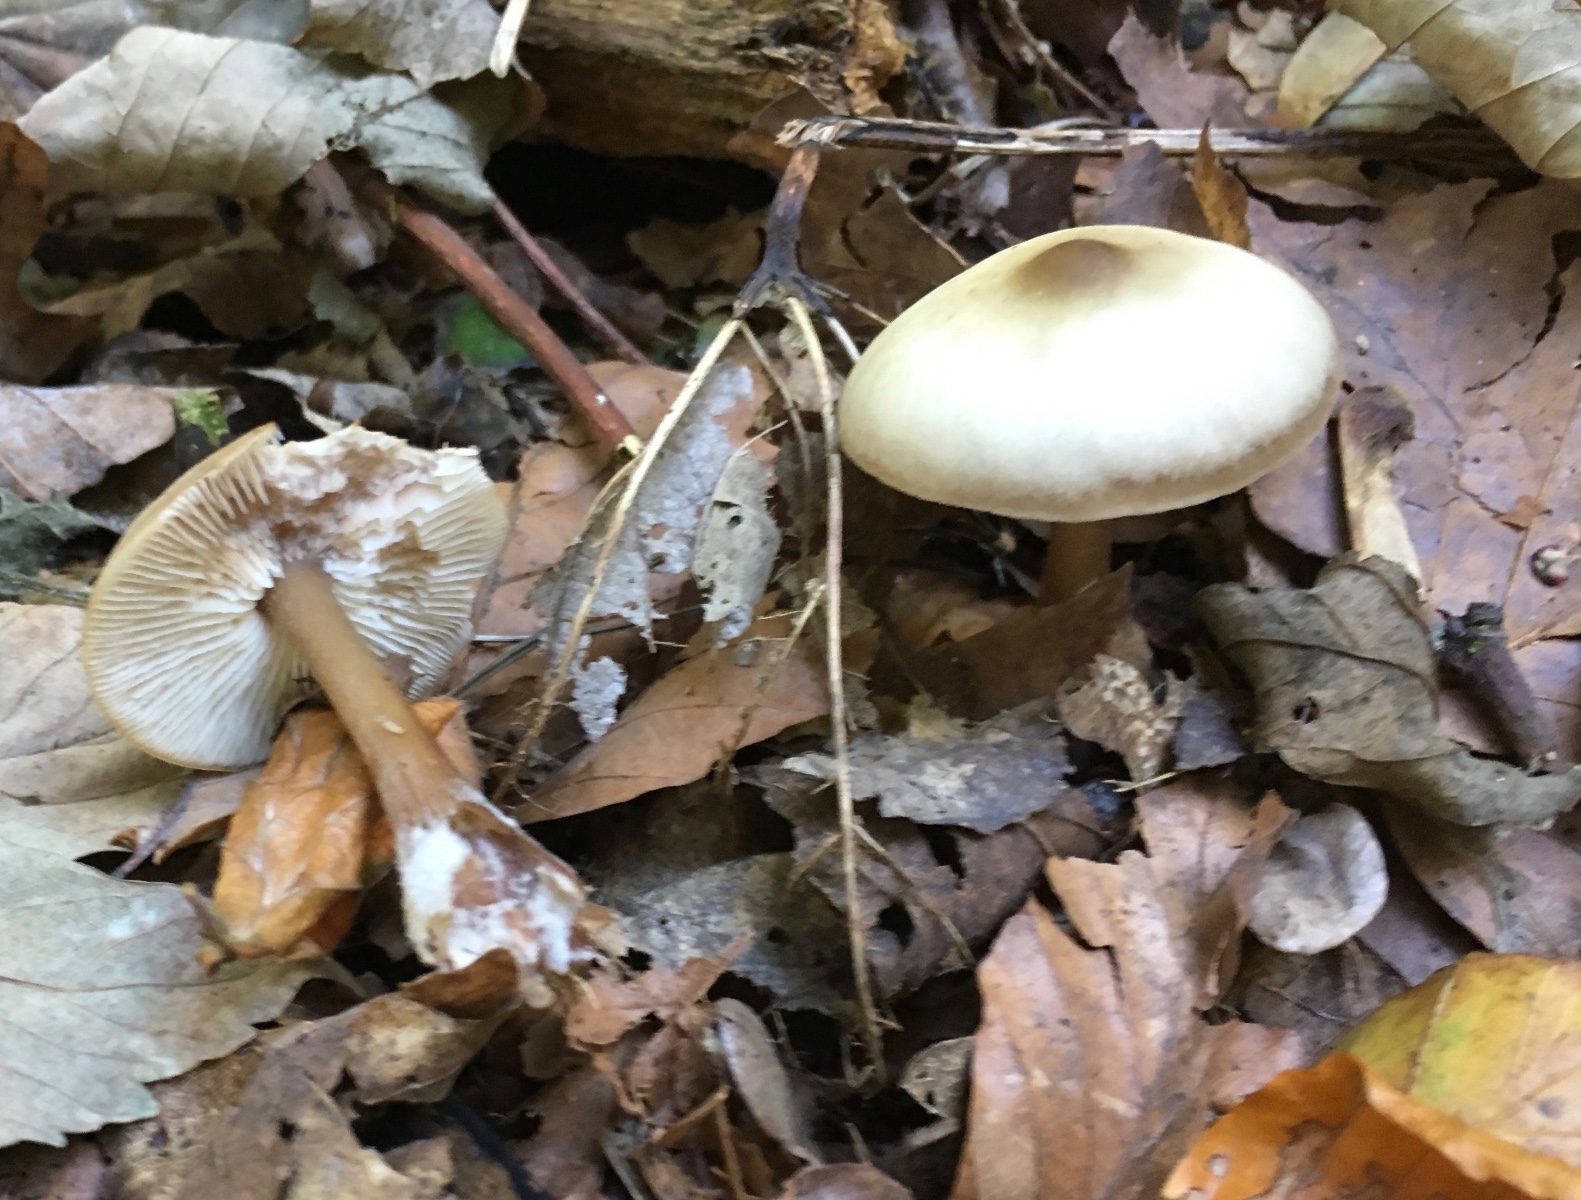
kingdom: Fungi
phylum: Basidiomycota
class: Agaricomycetes
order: Agaricales
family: Omphalotaceae
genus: Rhodocollybia
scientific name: Rhodocollybia asema
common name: horngrå fladhat
